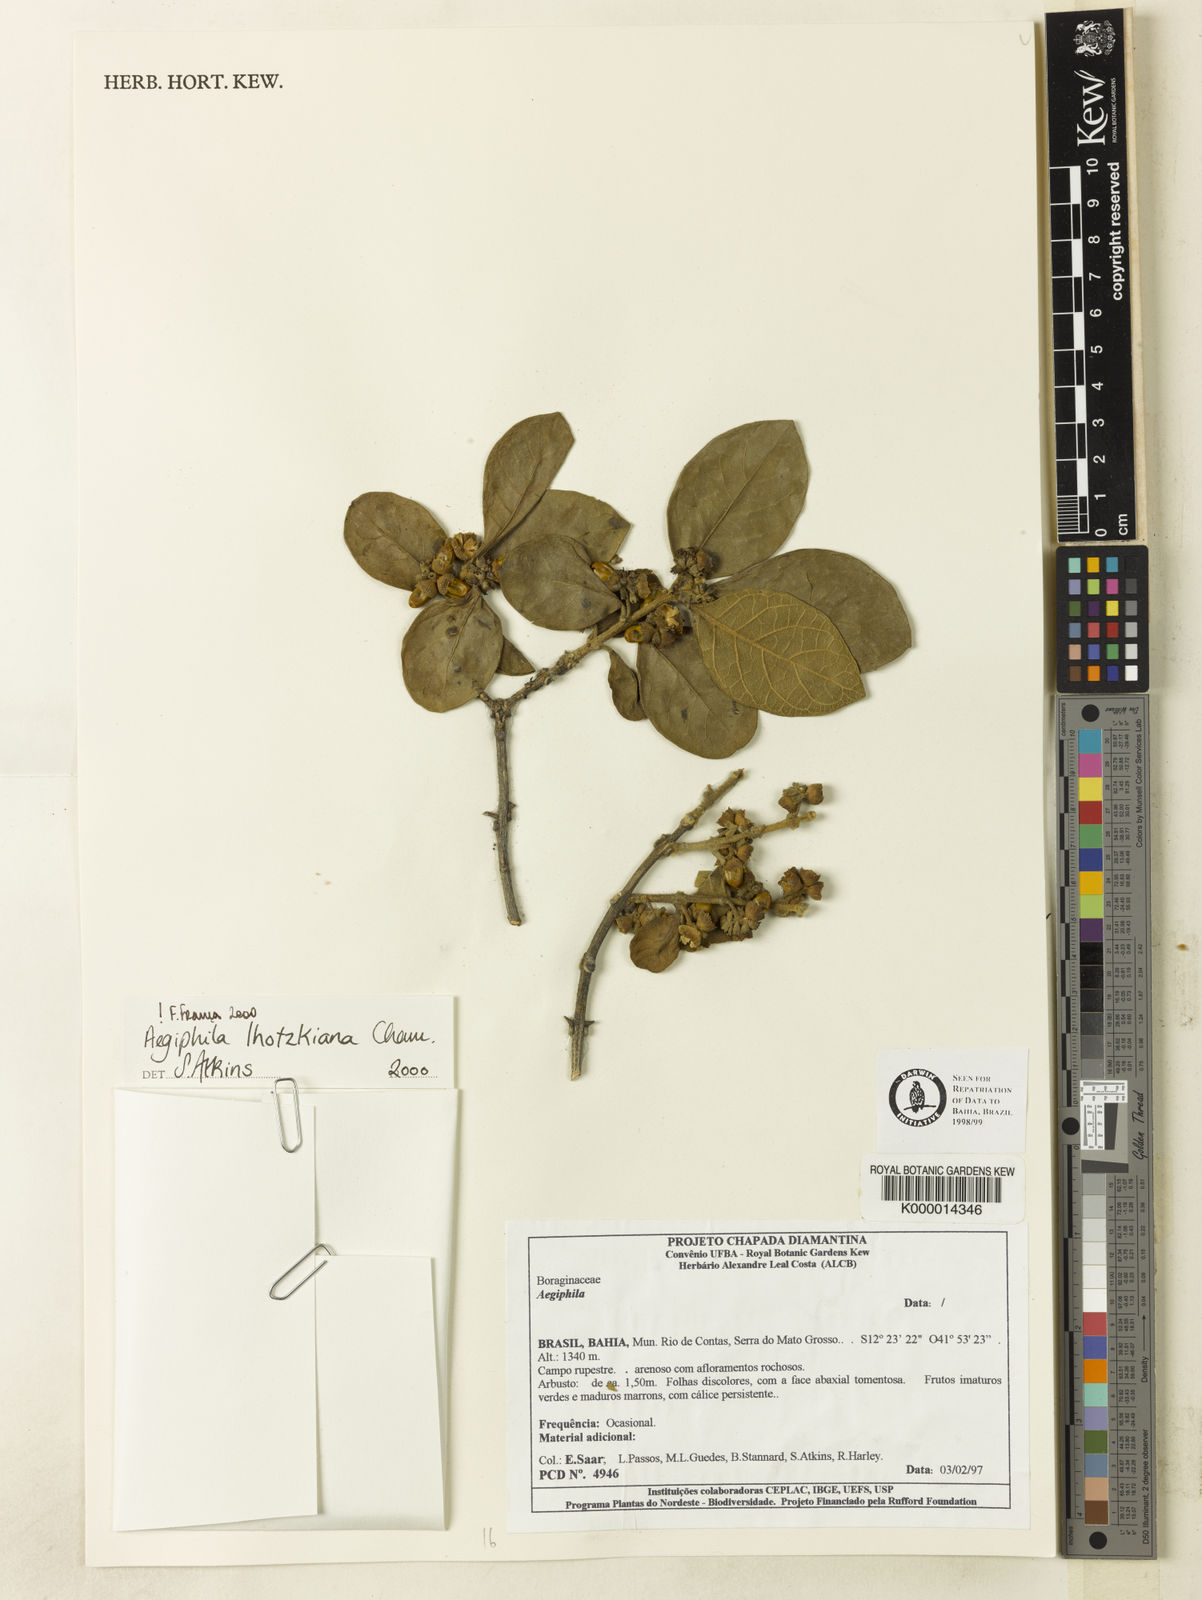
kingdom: Plantae
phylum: Tracheophyta
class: Magnoliopsida
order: Lamiales
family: Lamiaceae
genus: Aegiphila
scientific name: Aegiphila verticillata
